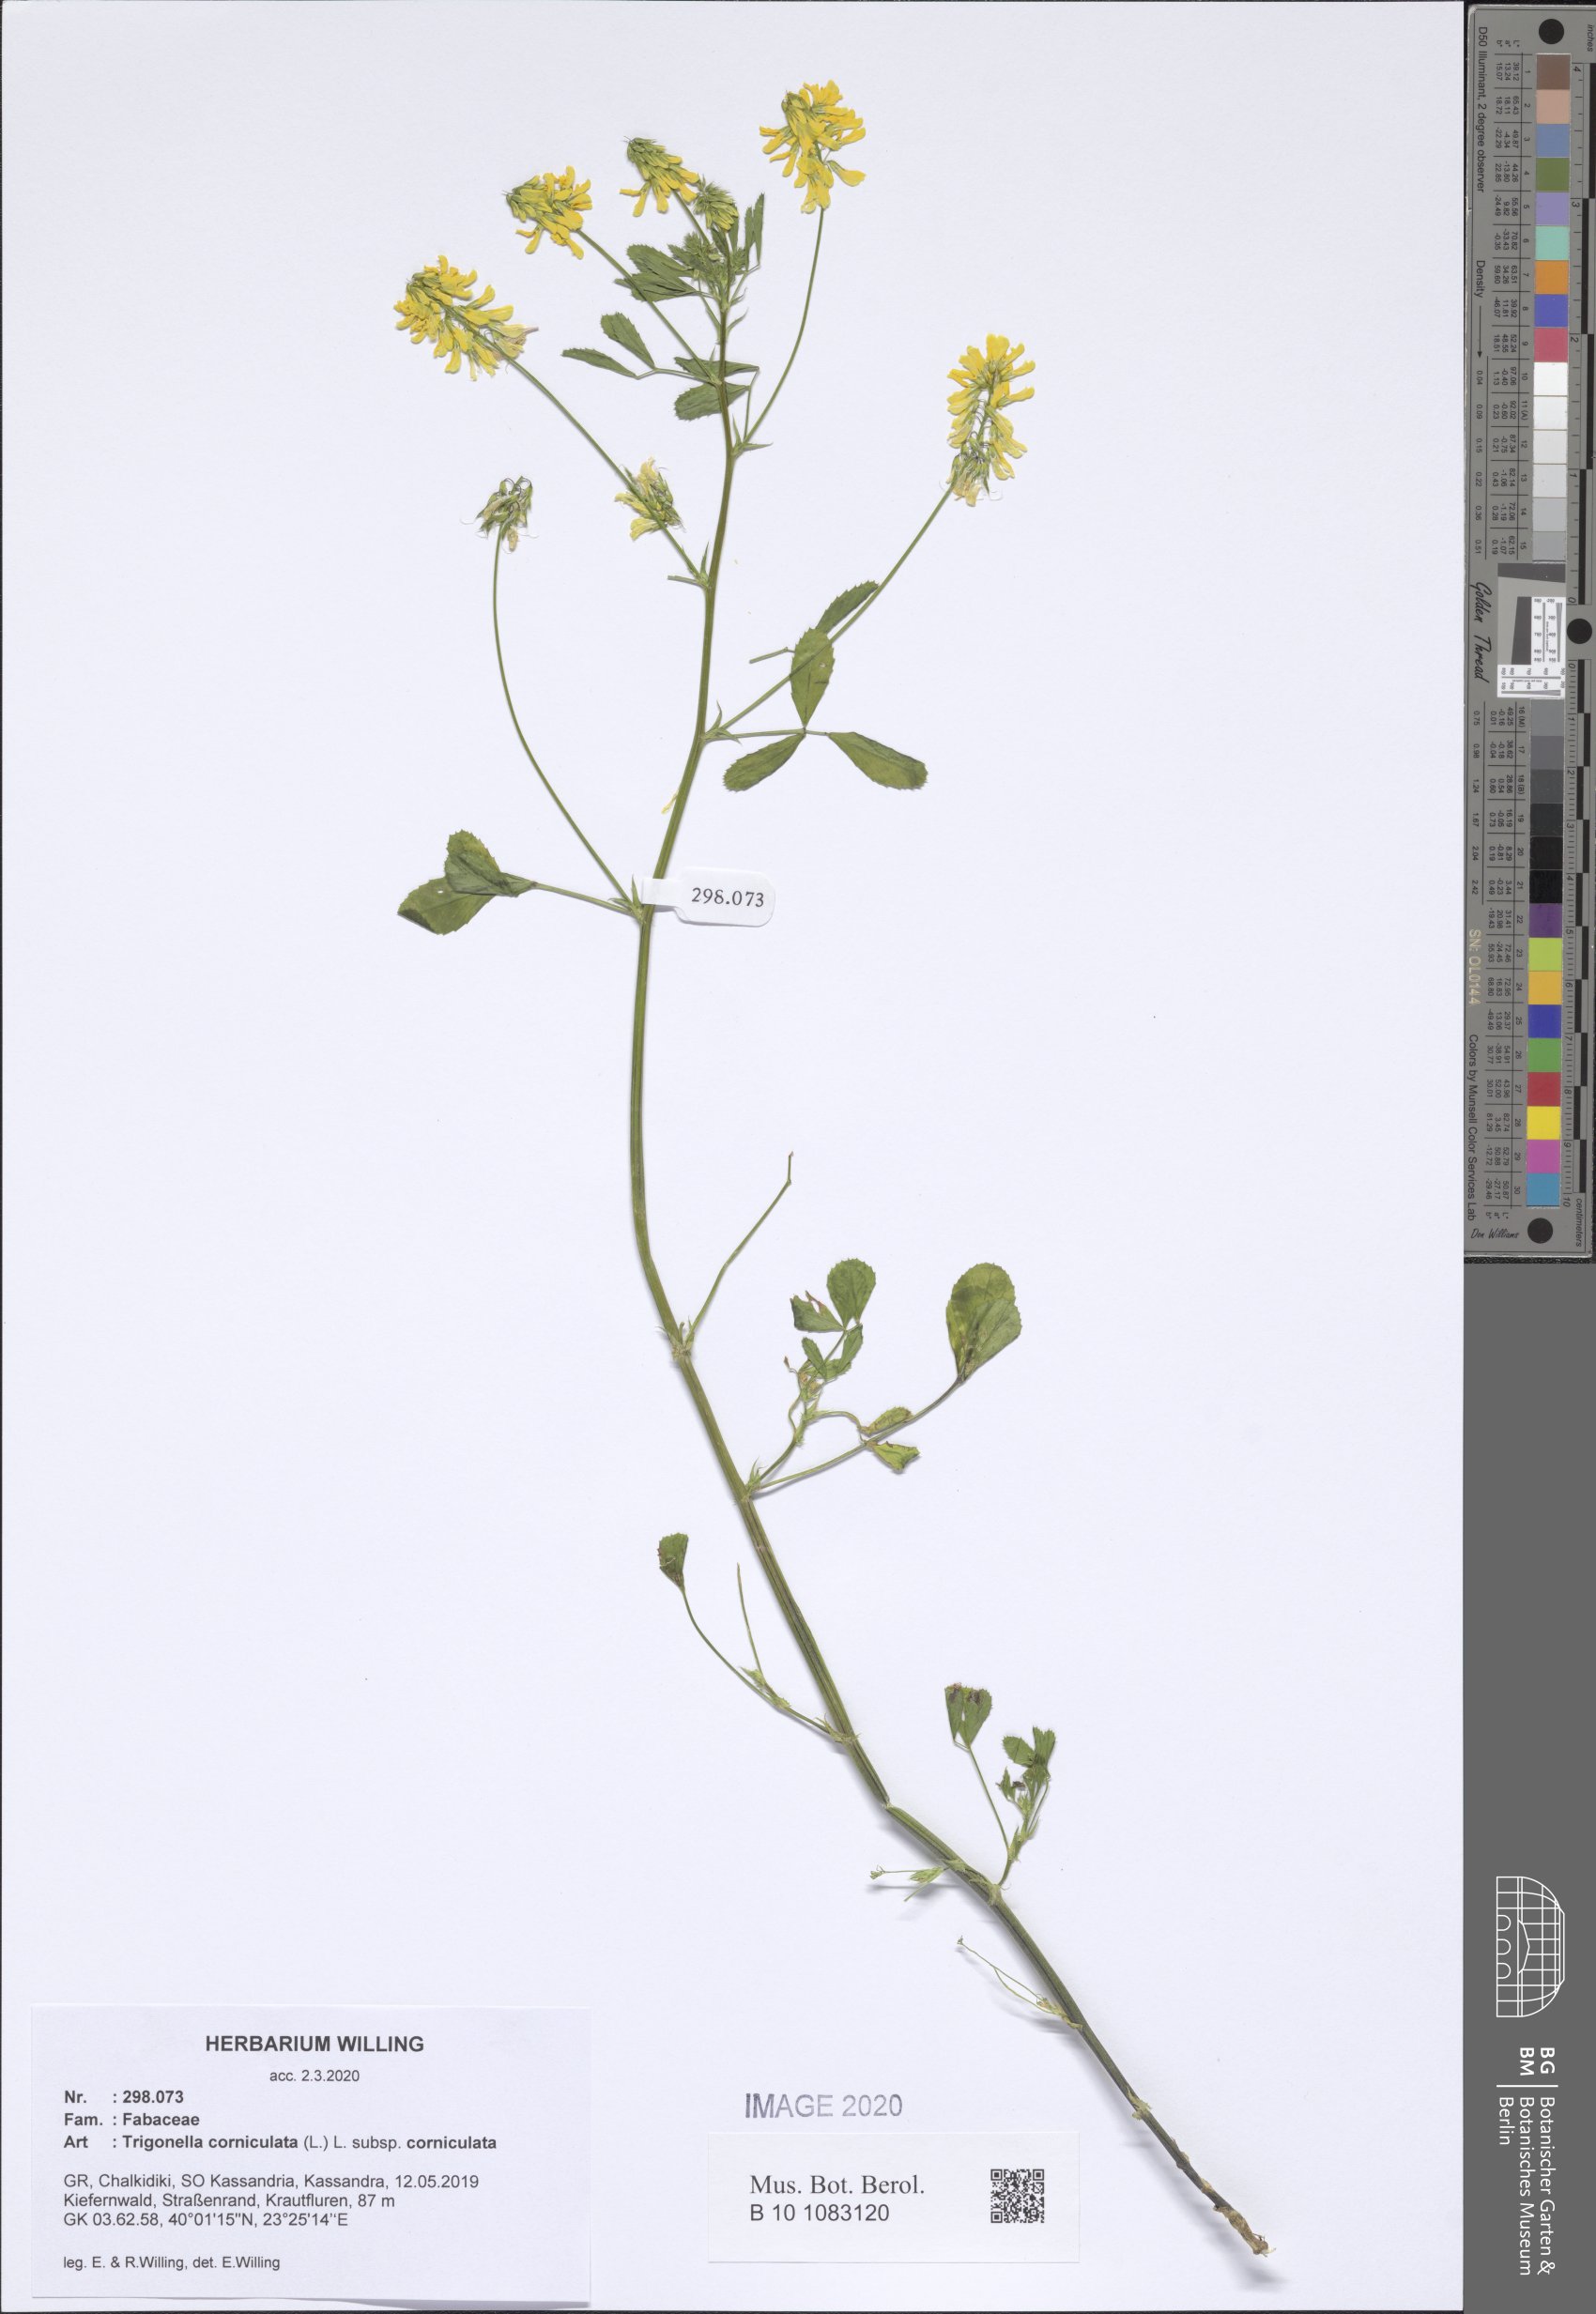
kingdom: Plantae
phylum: Tracheophyta
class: Magnoliopsida
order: Fabales
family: Fabaceae
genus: Trigonella
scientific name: Trigonella corniculata
